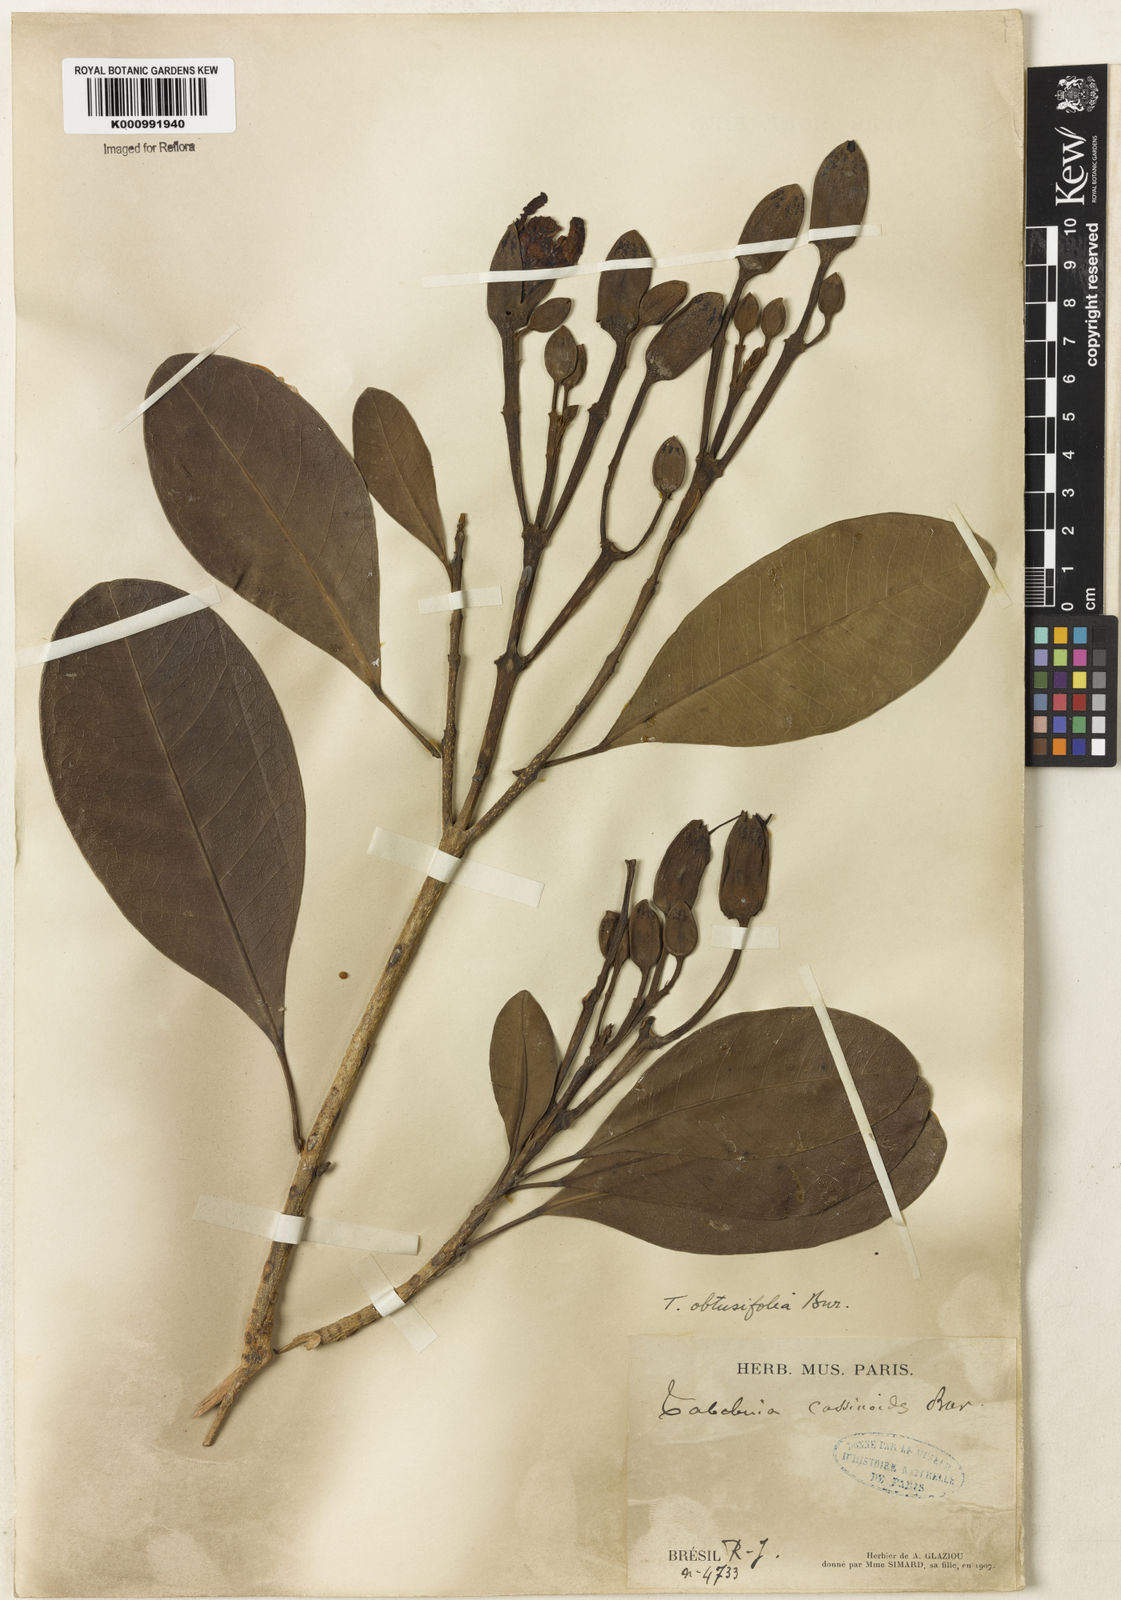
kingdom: Plantae
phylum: Tracheophyta
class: Magnoliopsida
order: Lamiales
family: Bignoniaceae
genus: Tabebuia
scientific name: Tabebuia obtusifolia
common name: Guadeloupe trumpet-tree
